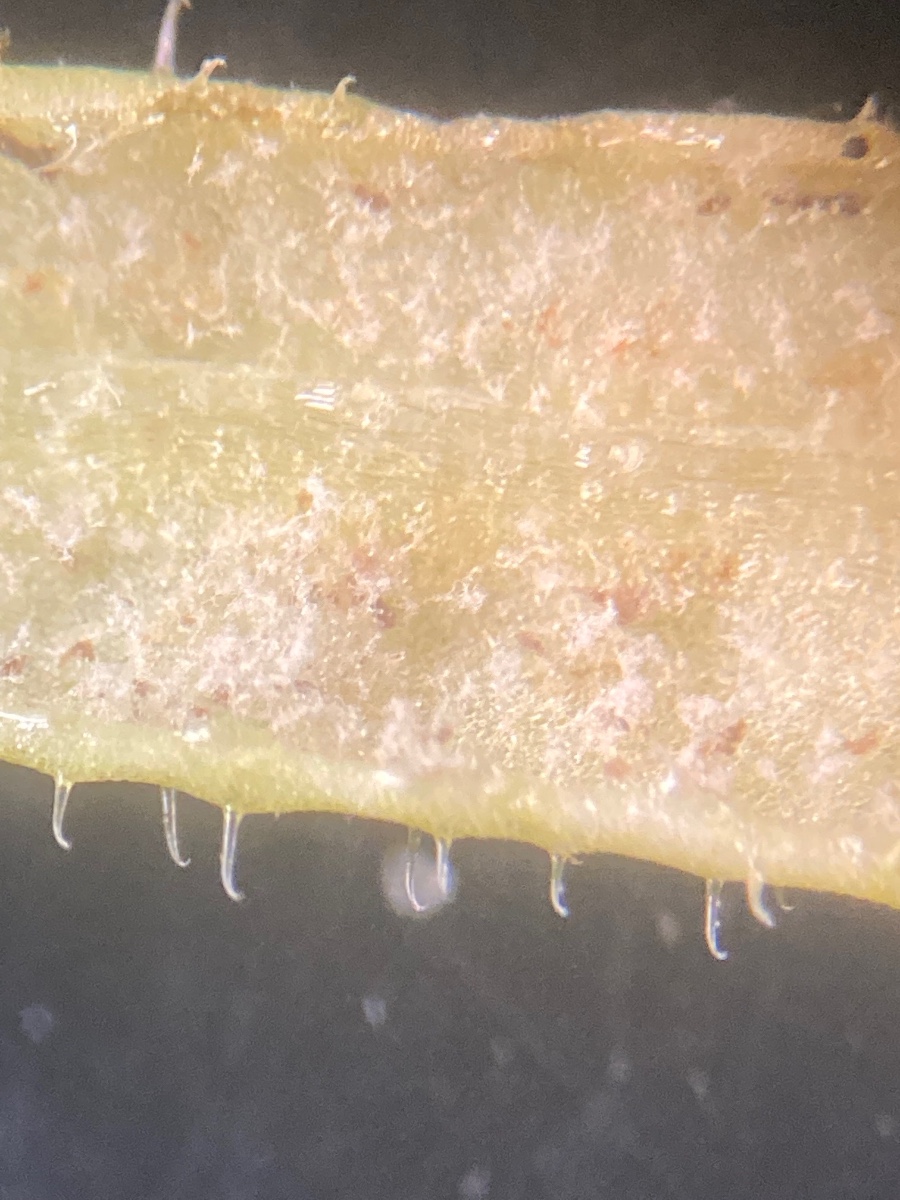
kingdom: Chromista
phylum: Oomycota
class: Peronosporea
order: Peronosporales
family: Peronosporaceae
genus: Peronospora
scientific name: Peronospora aparines
